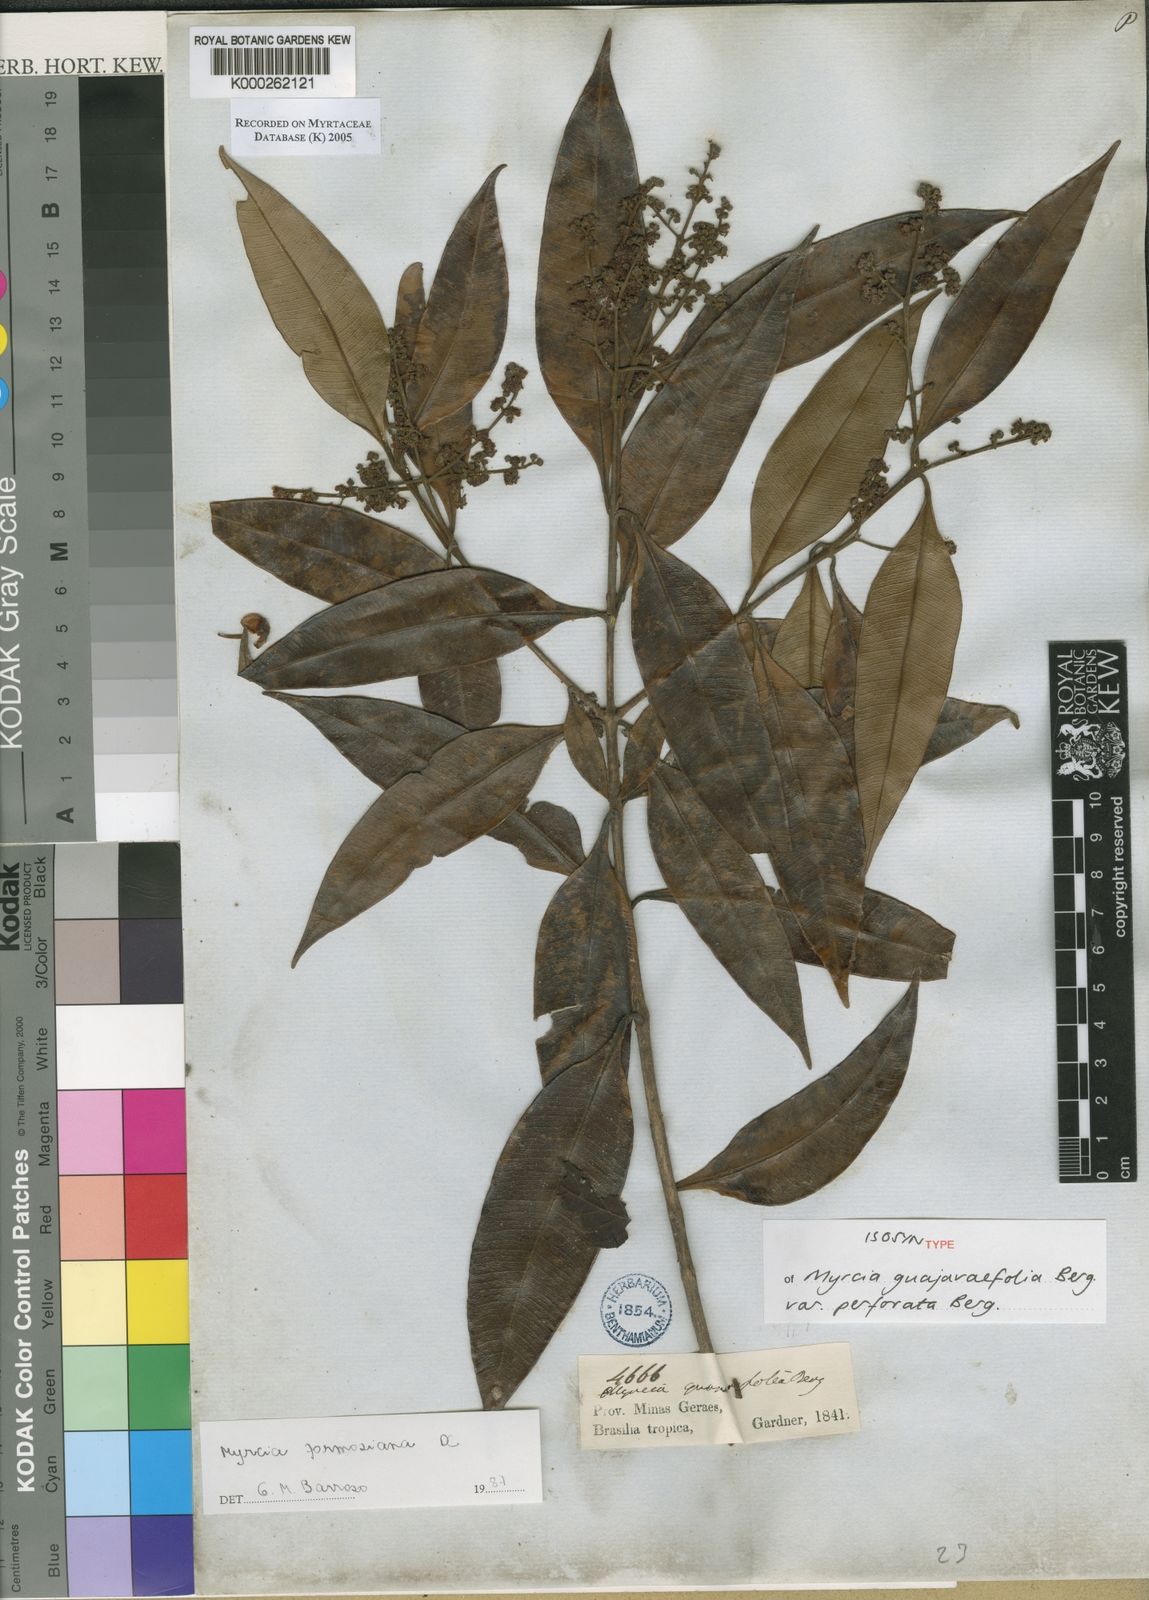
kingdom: Plantae
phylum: Tracheophyta
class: Magnoliopsida
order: Myrtales
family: Myrtaceae
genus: Myrcia
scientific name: Myrcia splendens
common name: Surinam cherry
